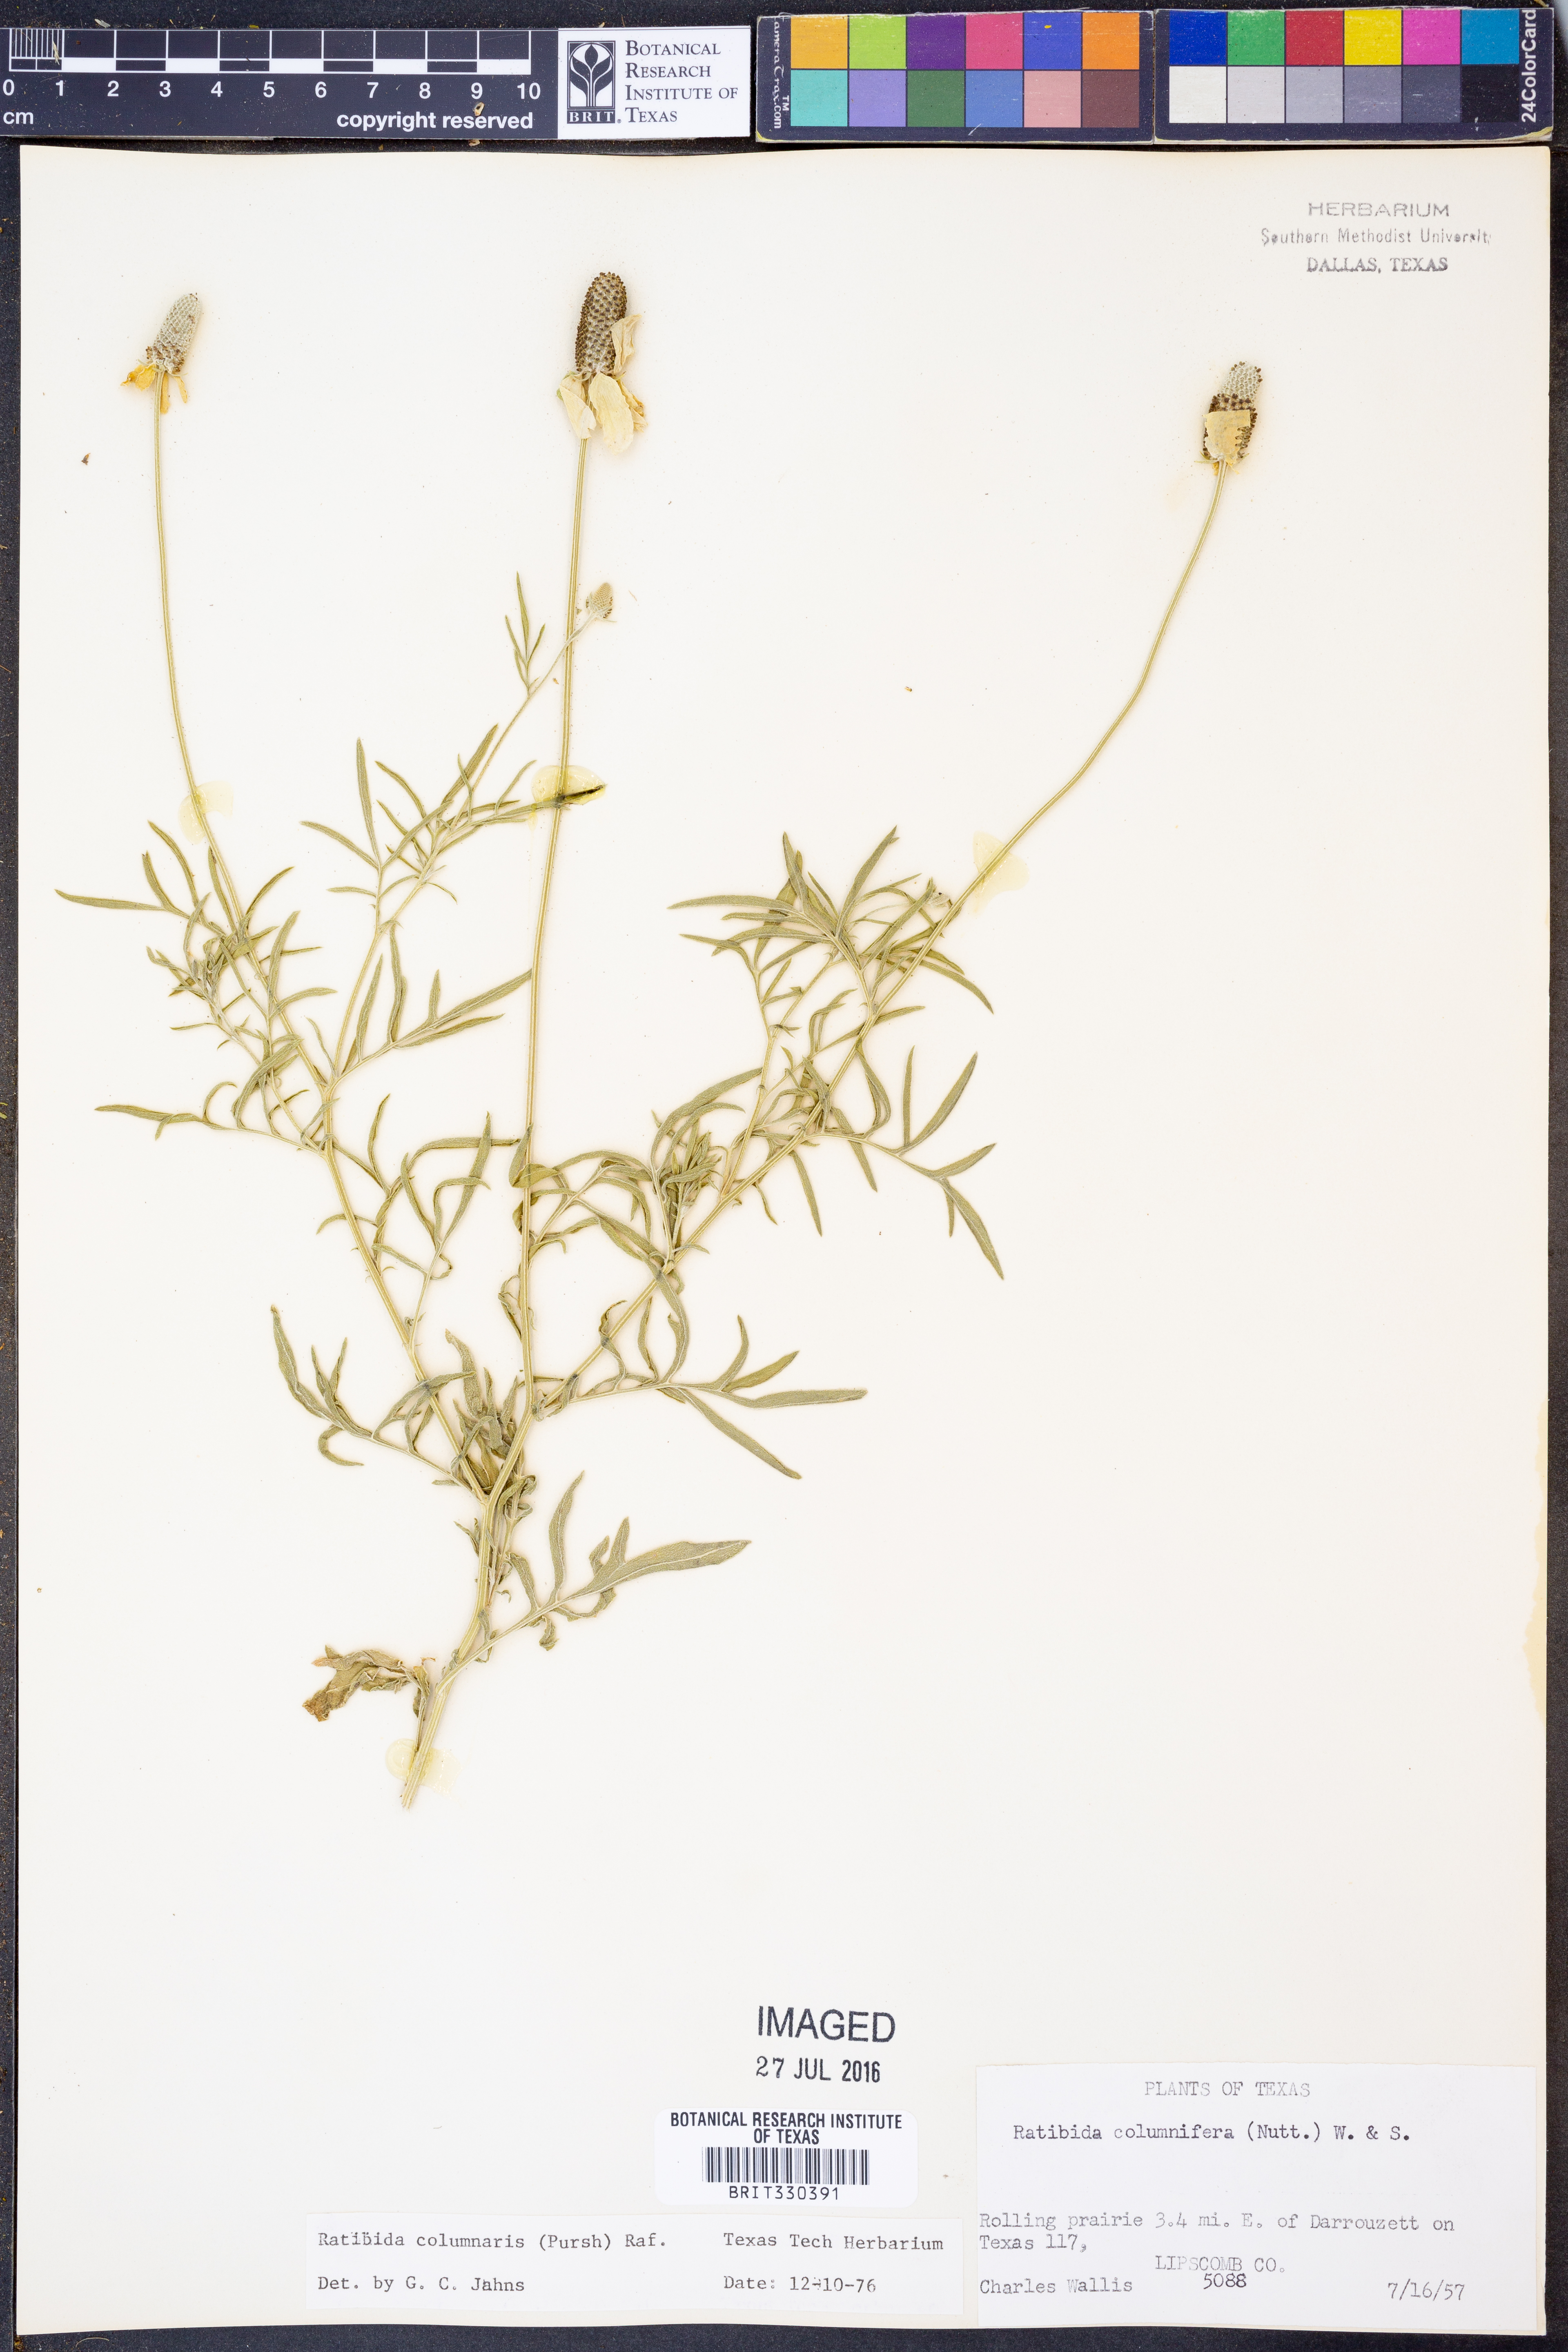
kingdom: Plantae
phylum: Tracheophyta
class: Magnoliopsida
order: Asterales
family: Asteraceae
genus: Ratibida
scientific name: Ratibida columnifera
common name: Prairie coneflower
